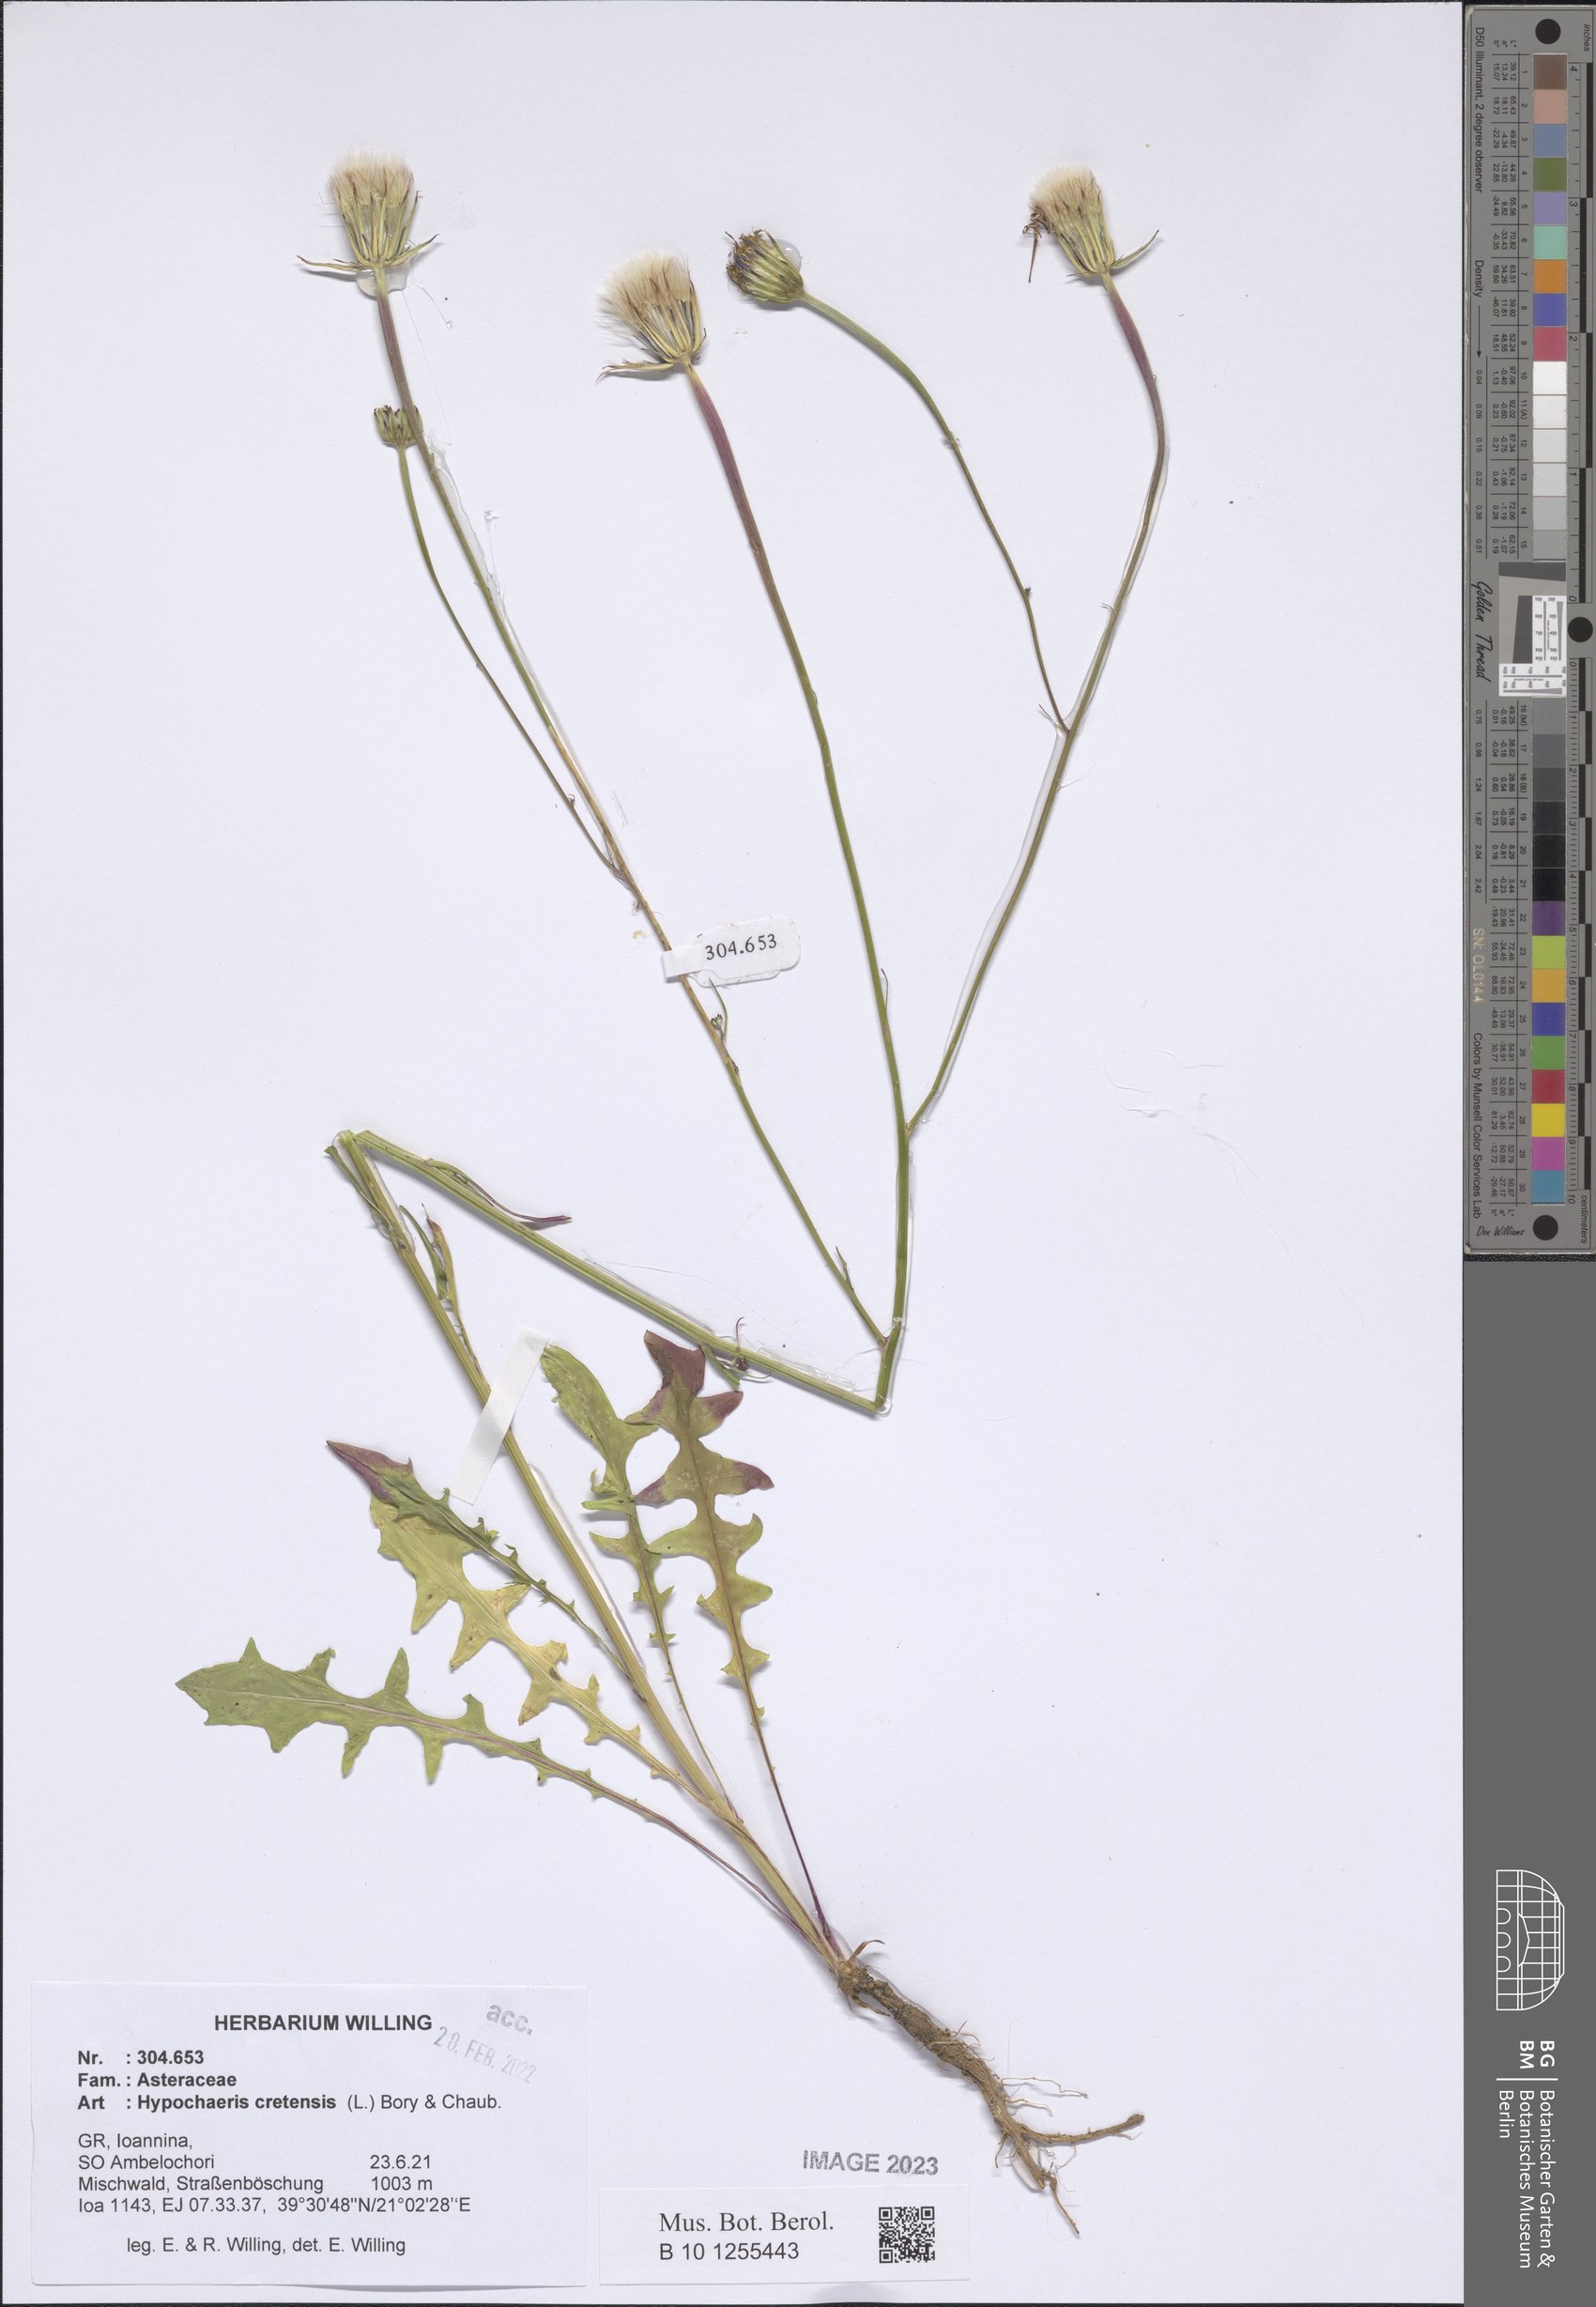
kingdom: Plantae
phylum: Tracheophyta
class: Magnoliopsida
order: Asterales
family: Asteraceae
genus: Hypochaeris
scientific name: Hypochaeris cretensis
